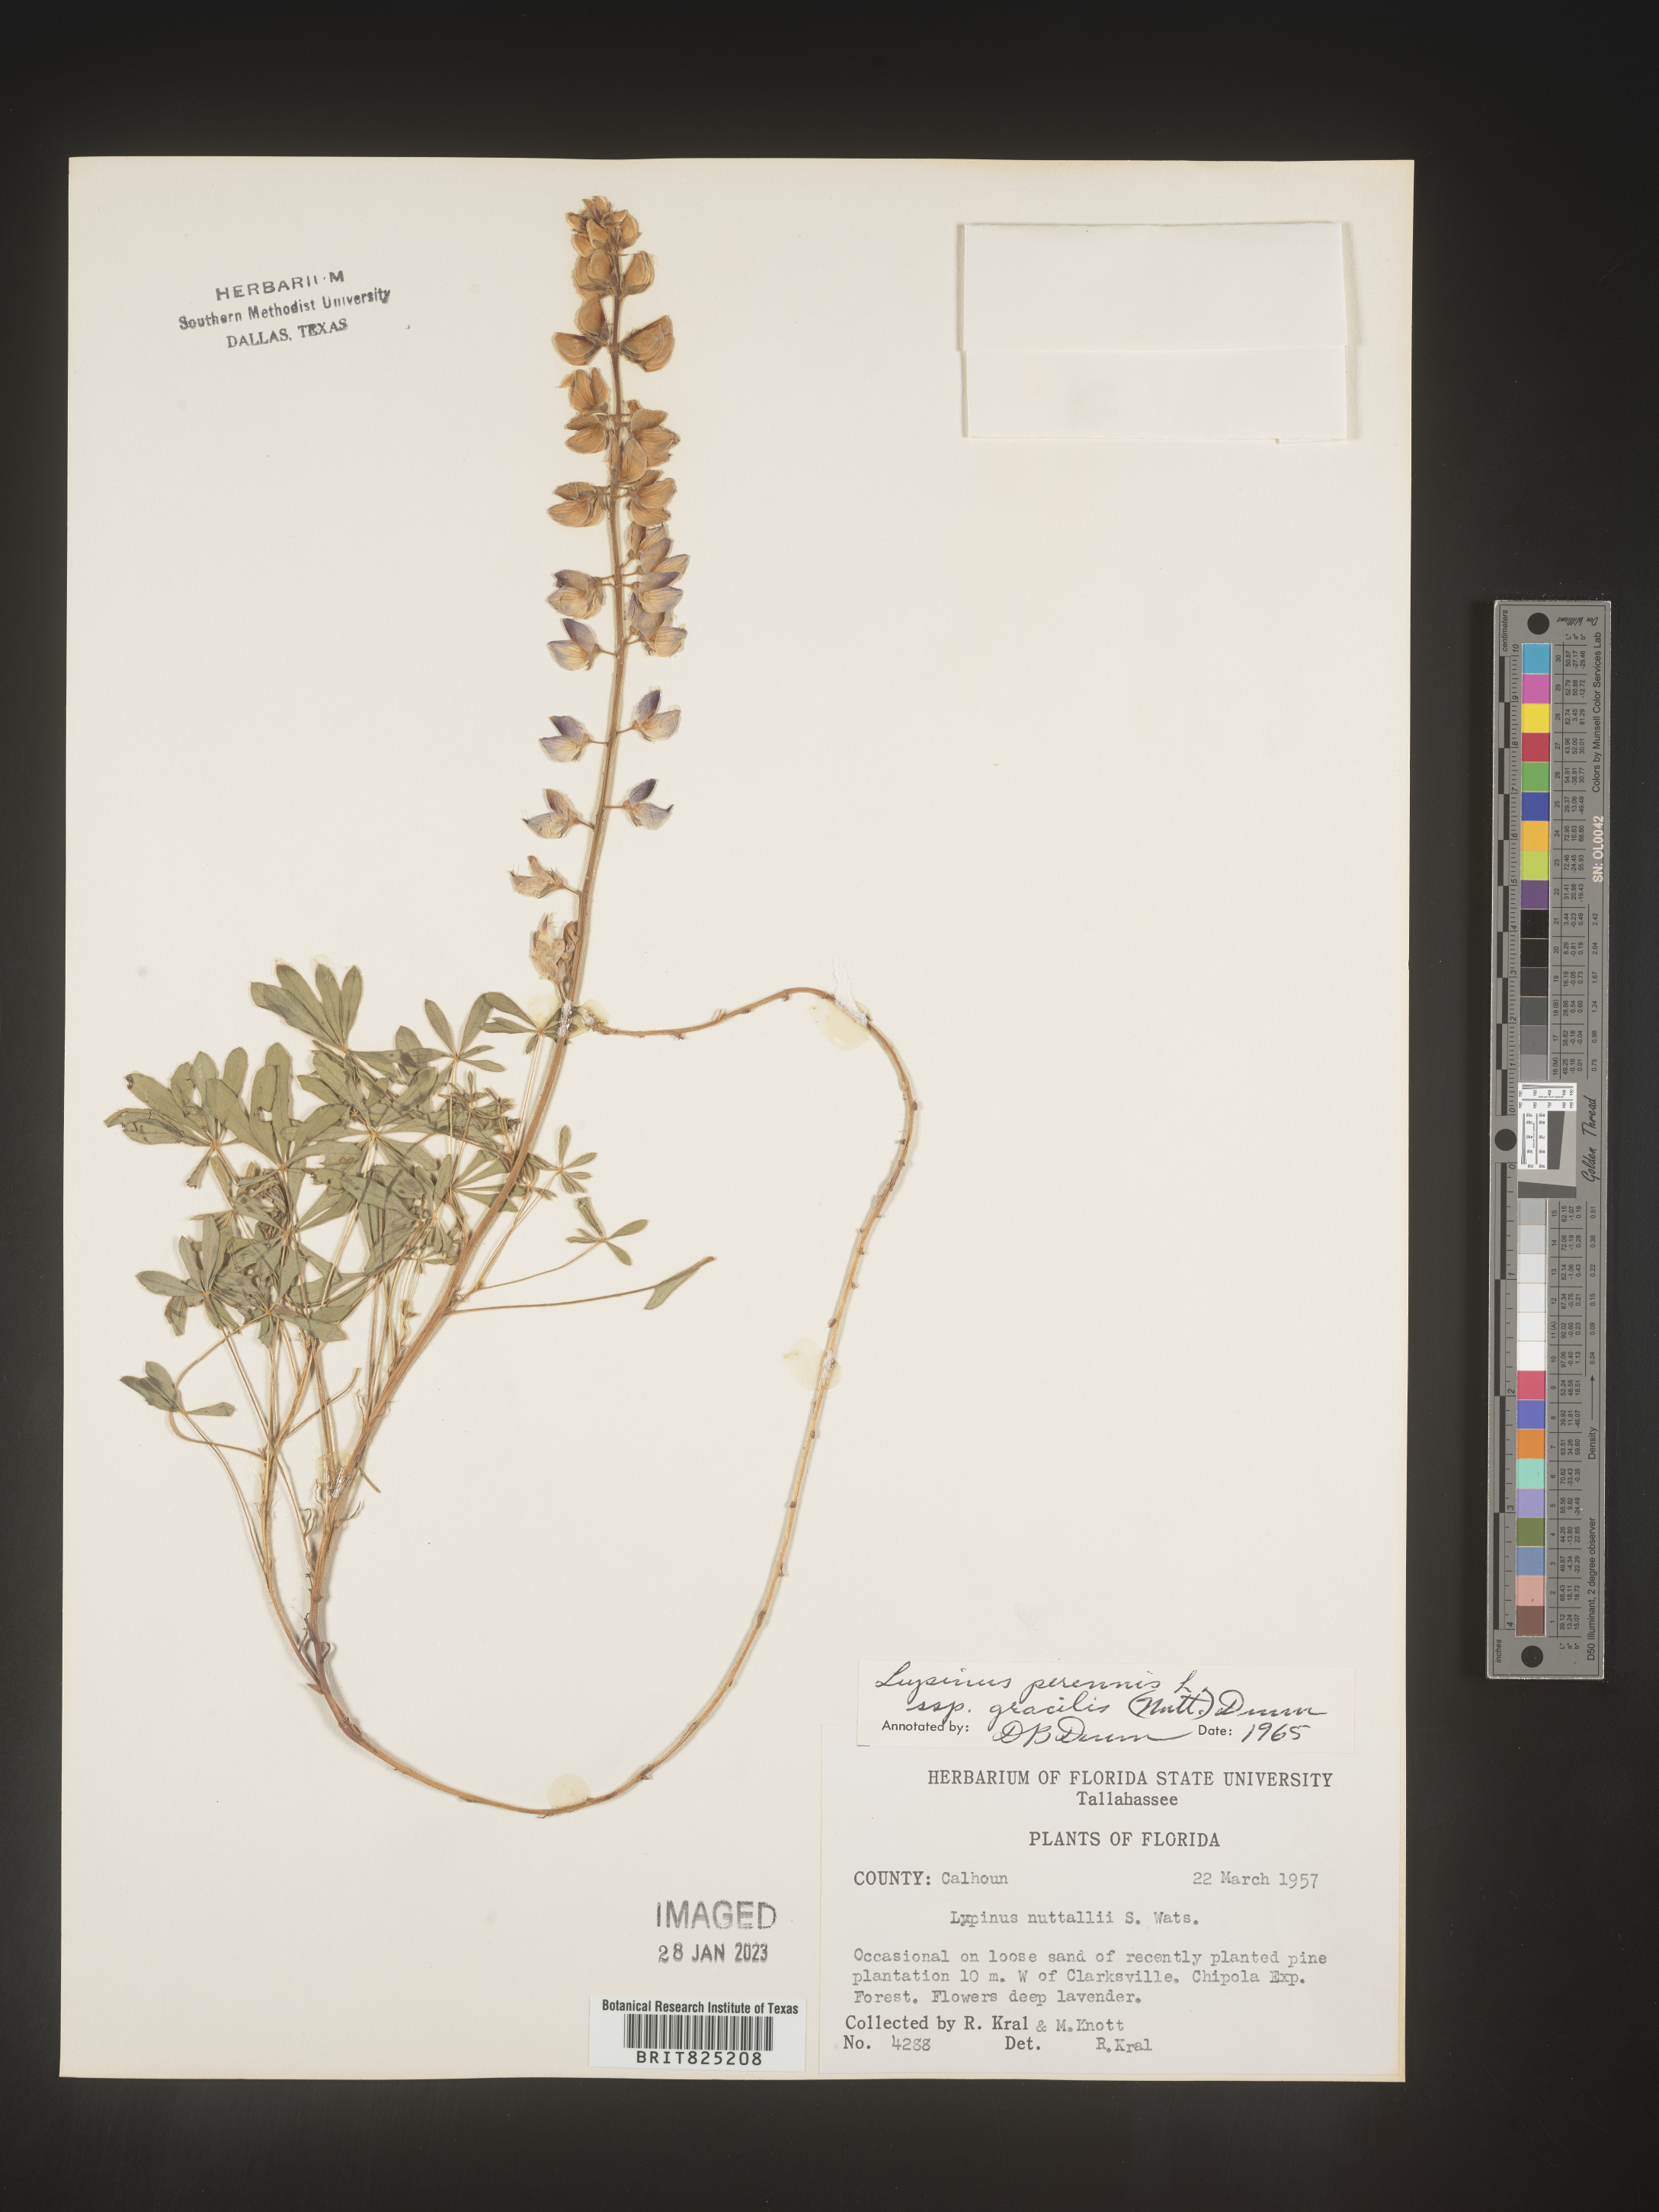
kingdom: Plantae
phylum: Tracheophyta
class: Magnoliopsida
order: Fabales
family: Fabaceae
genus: Lupinus
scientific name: Lupinus perennis
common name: Sundial lupine
